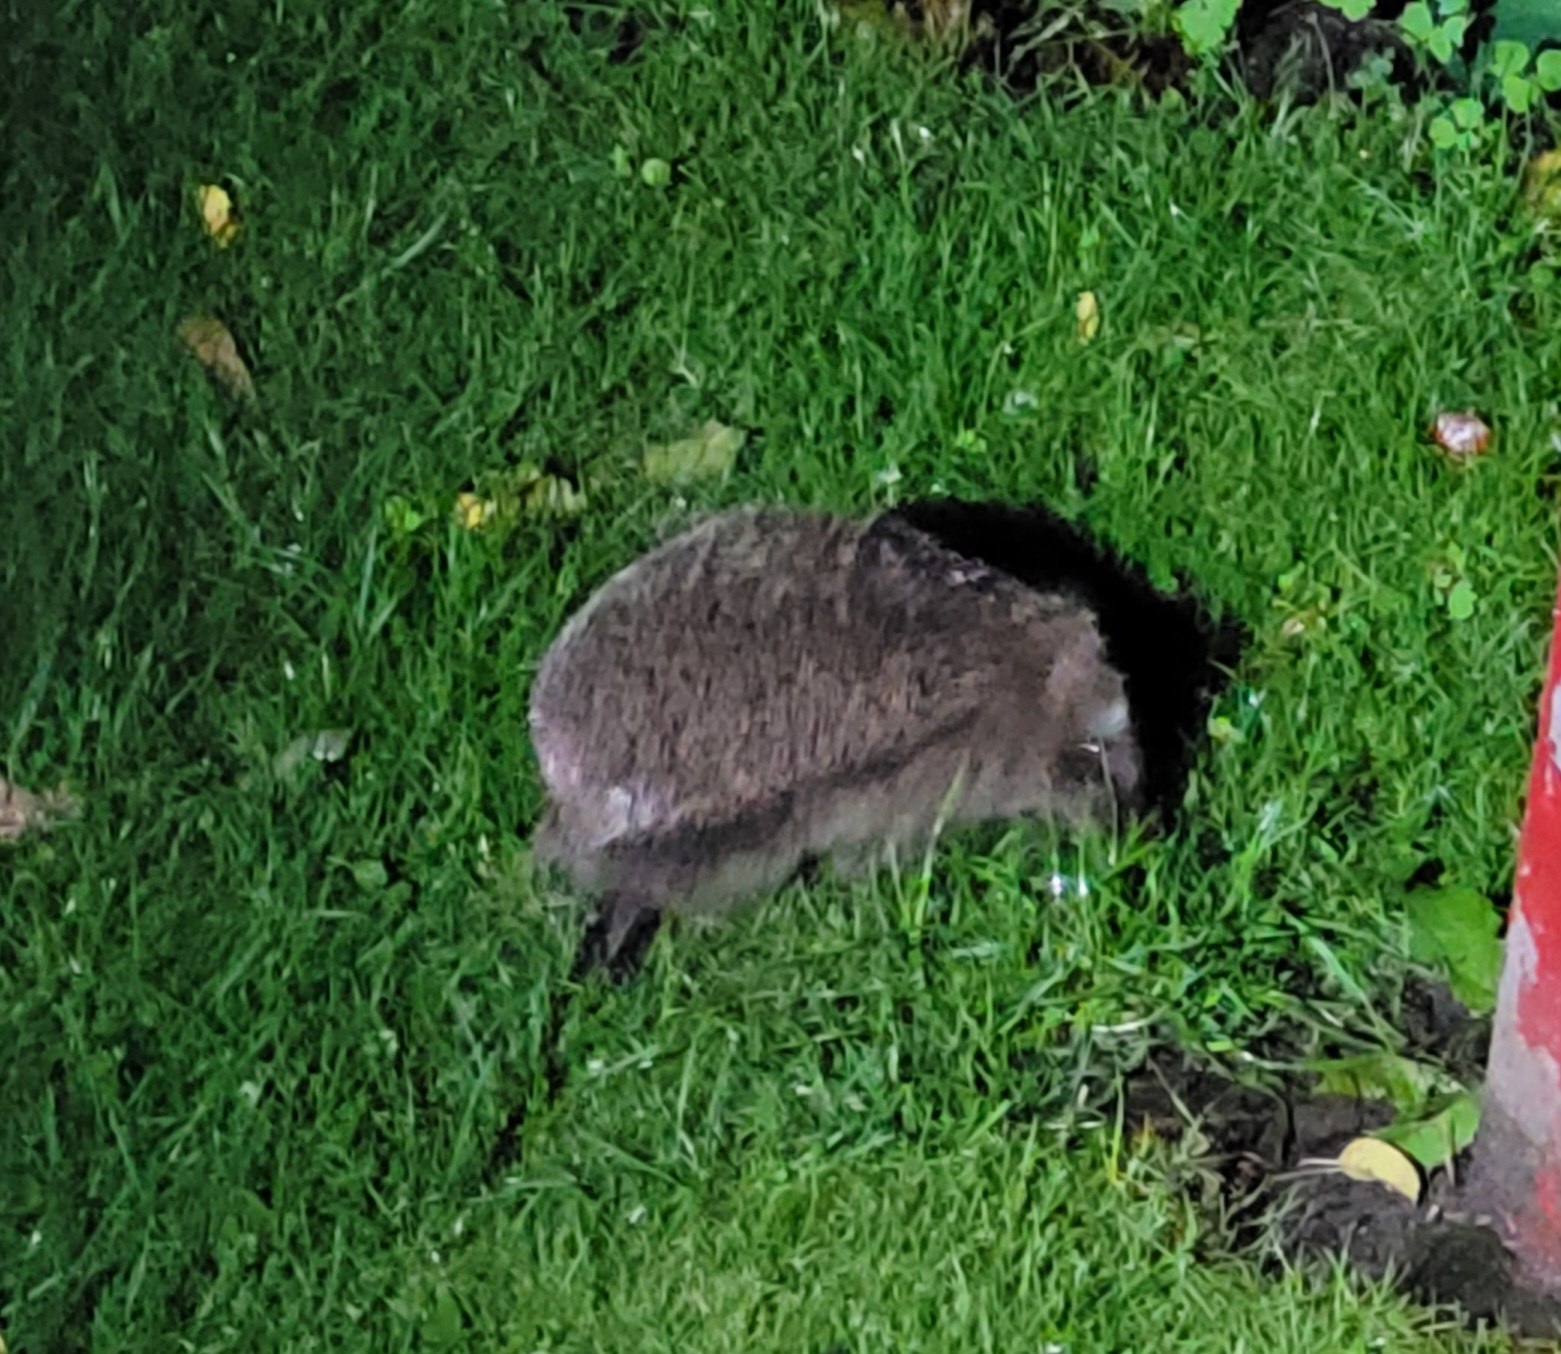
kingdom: Animalia
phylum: Chordata
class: Mammalia
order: Erinaceomorpha
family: Erinaceidae
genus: Erinaceus
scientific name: Erinaceus europaeus
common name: Pindsvin
